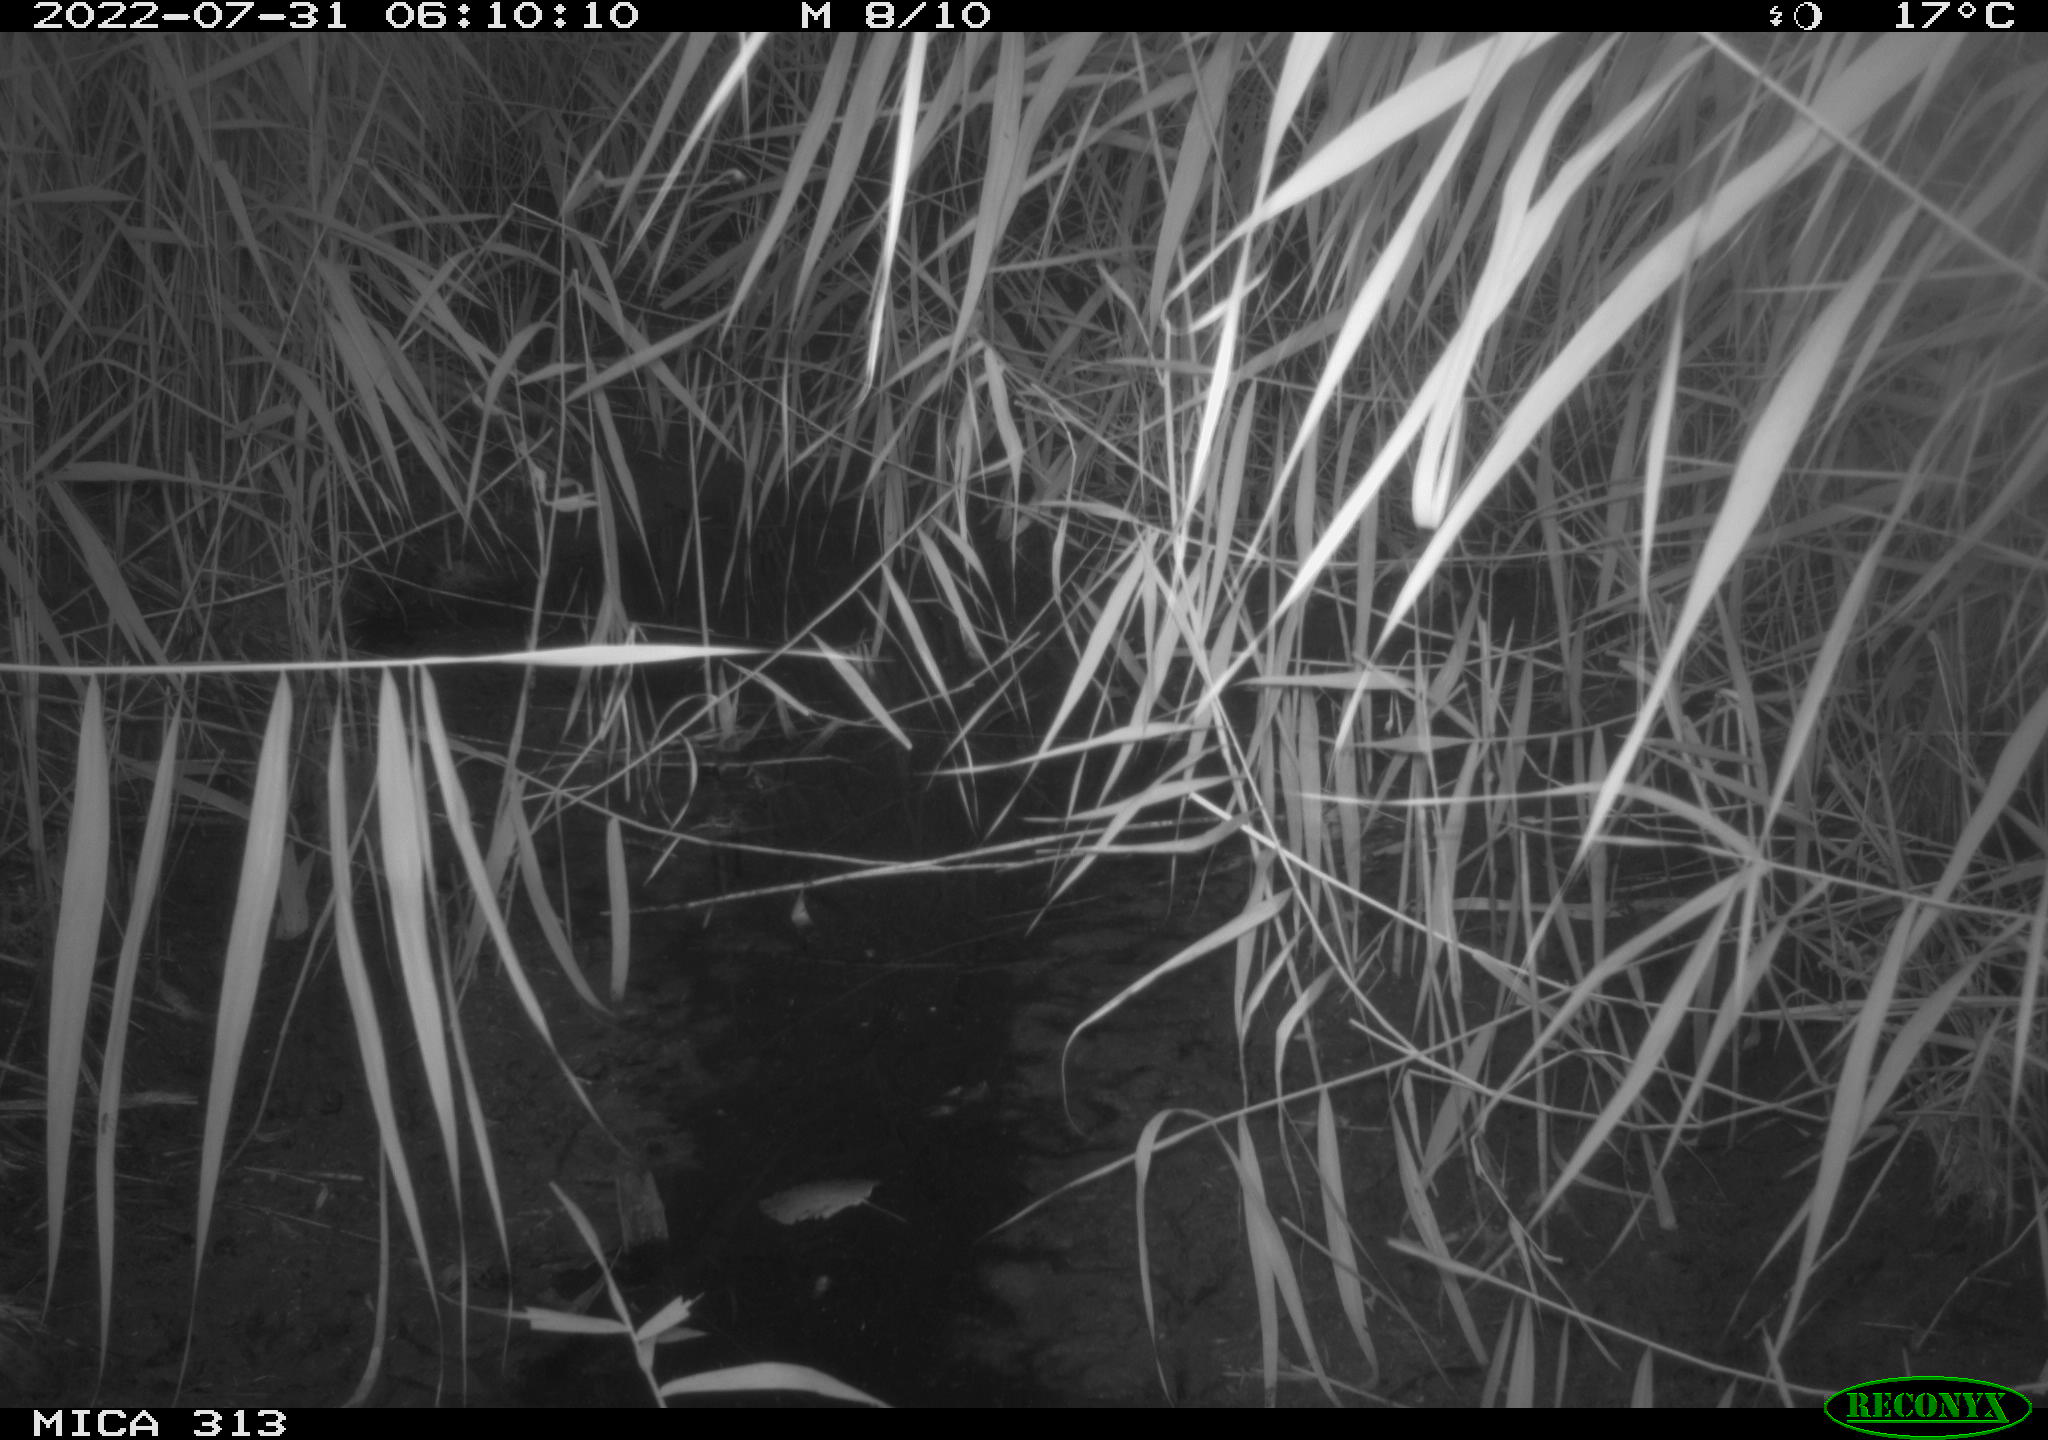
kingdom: Animalia
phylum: Chordata
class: Mammalia
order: Rodentia
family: Muridae
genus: Rattus
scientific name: Rattus norvegicus
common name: Brown rat
